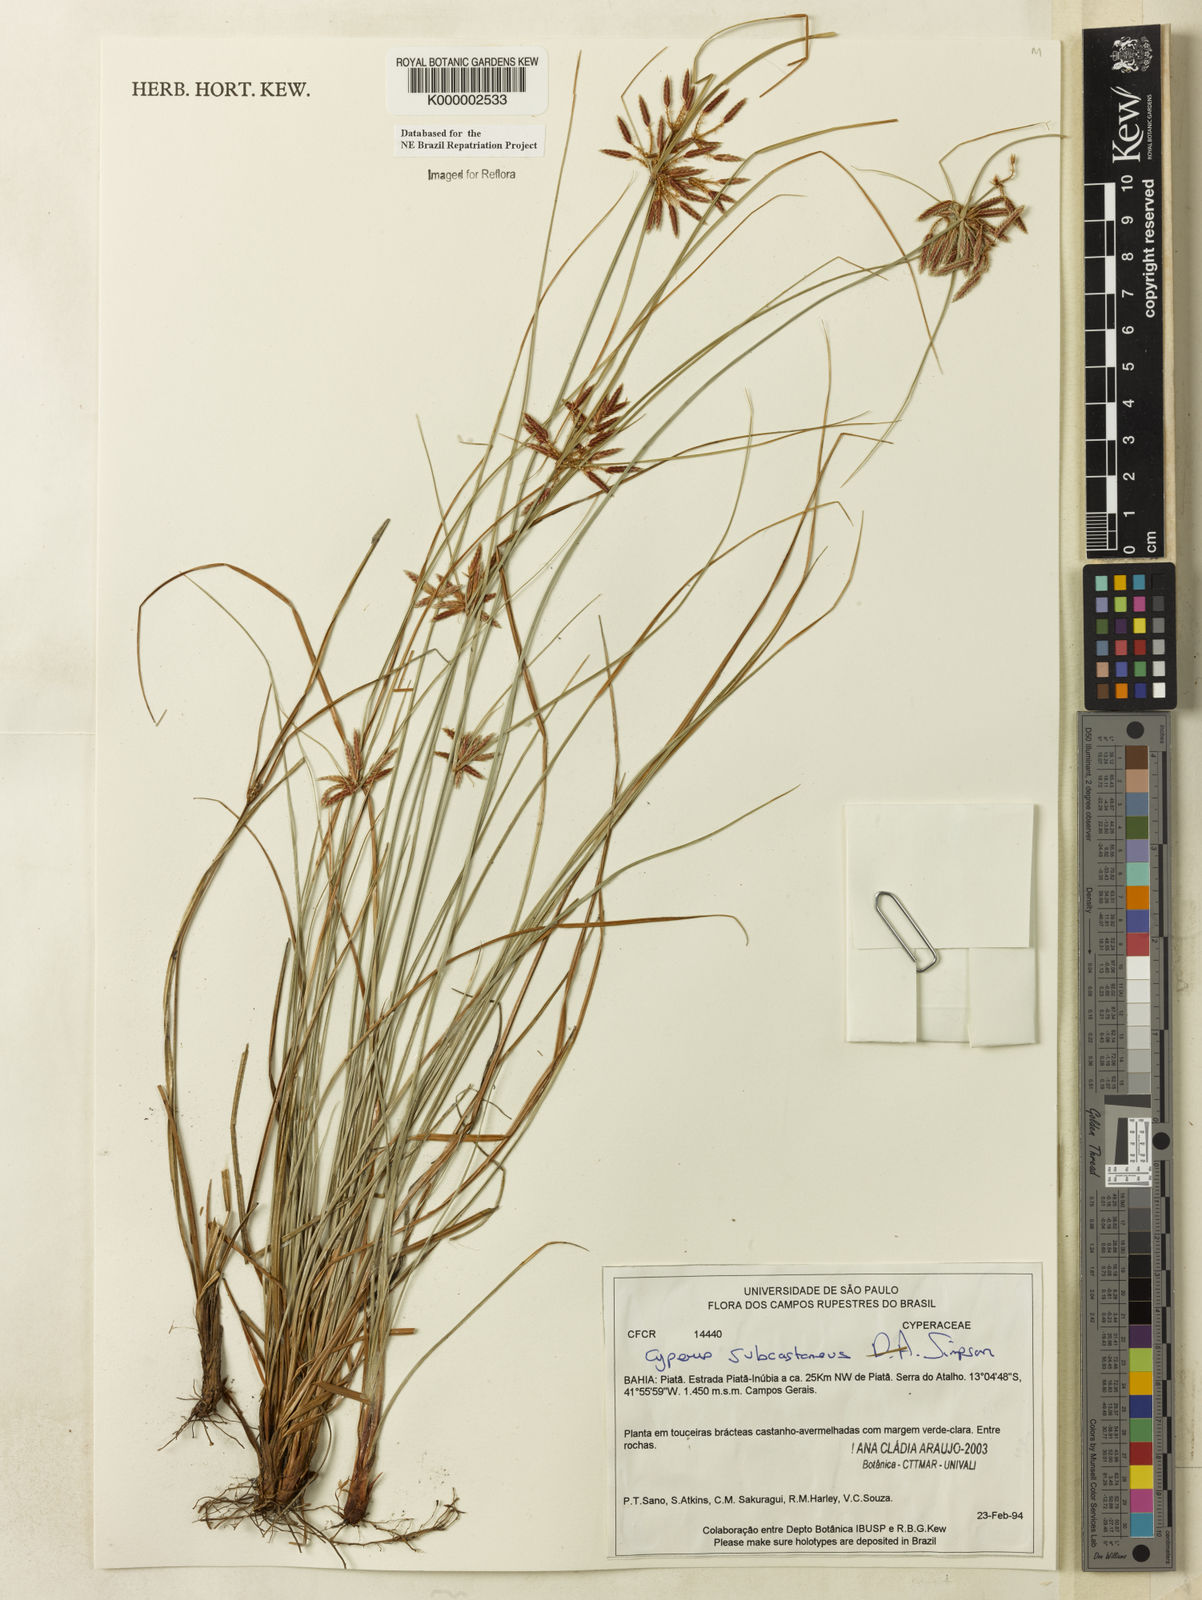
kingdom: Plantae
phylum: Tracheophyta
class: Liliopsida
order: Poales
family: Cyperaceae
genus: Cyperus
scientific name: Cyperus subcastaneus
